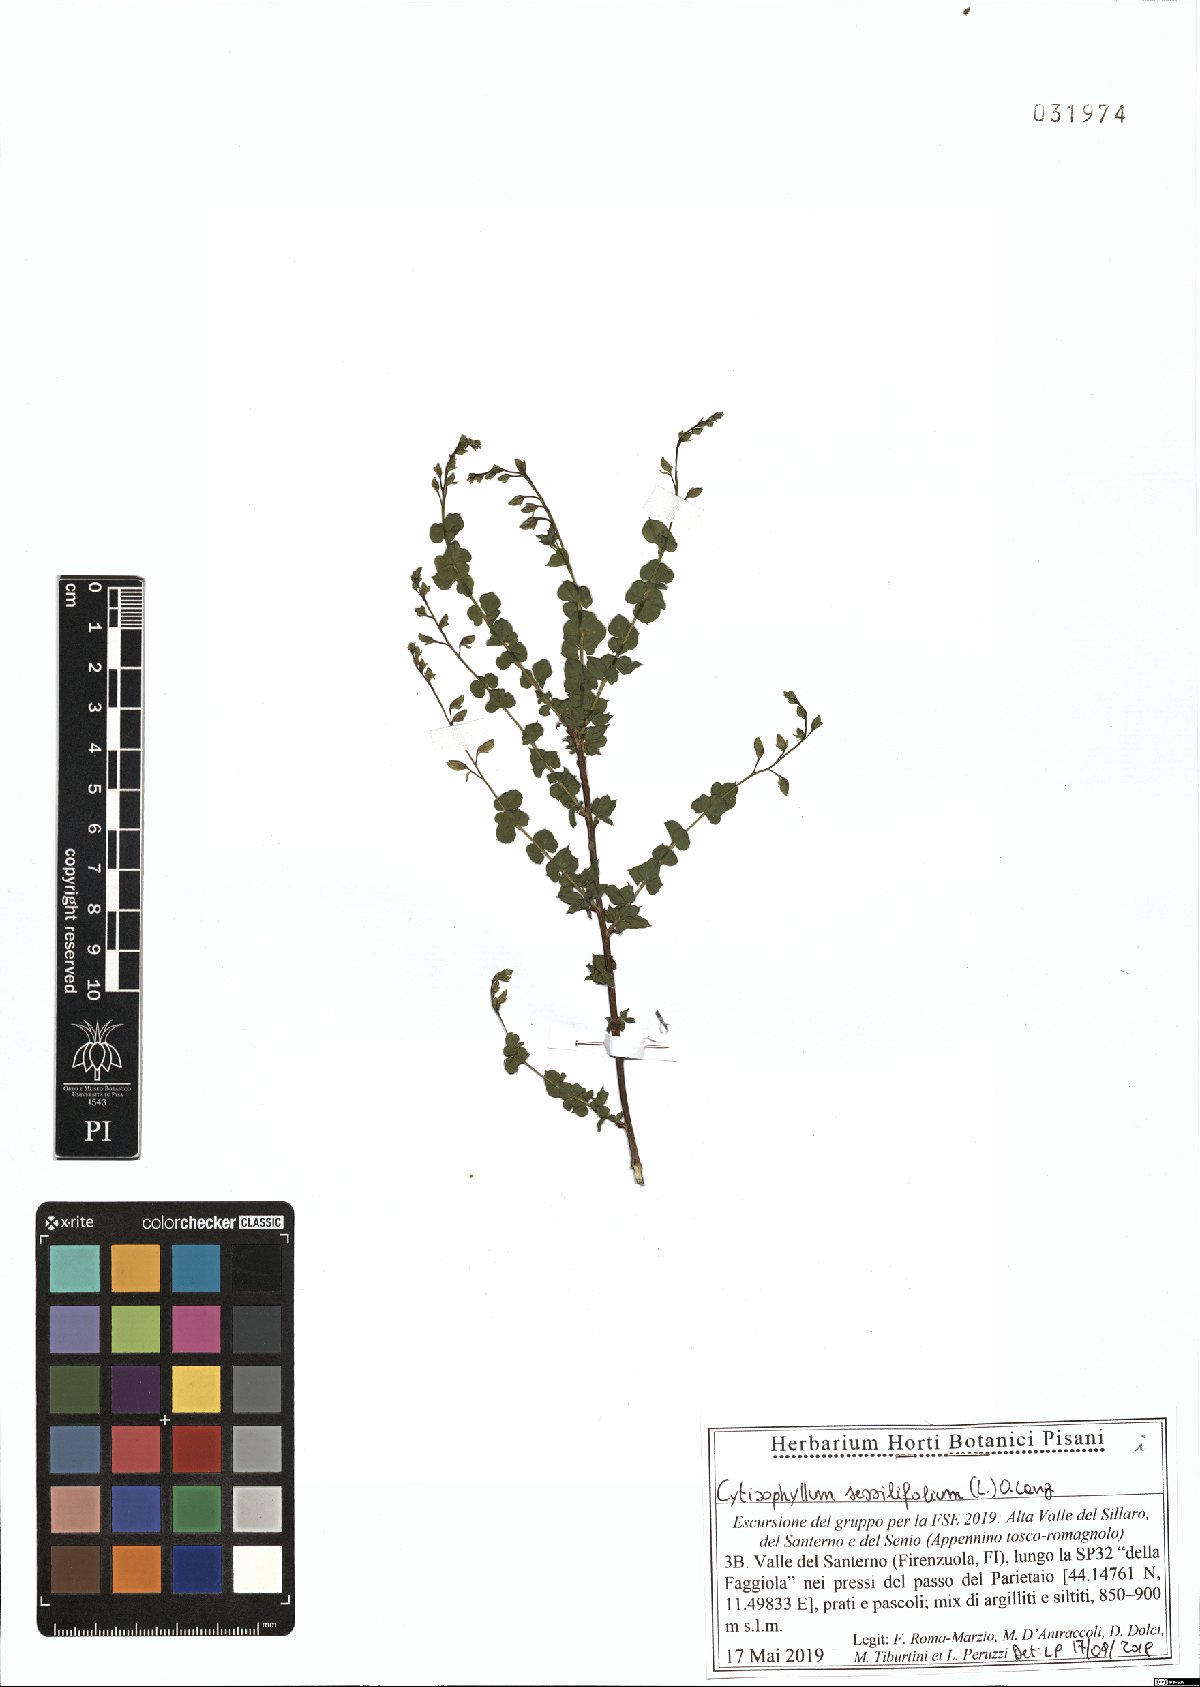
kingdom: Plantae
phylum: Tracheophyta
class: Magnoliopsida
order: Fabales
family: Fabaceae
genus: Cytisophyllum
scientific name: Cytisophyllum sessilifolium
